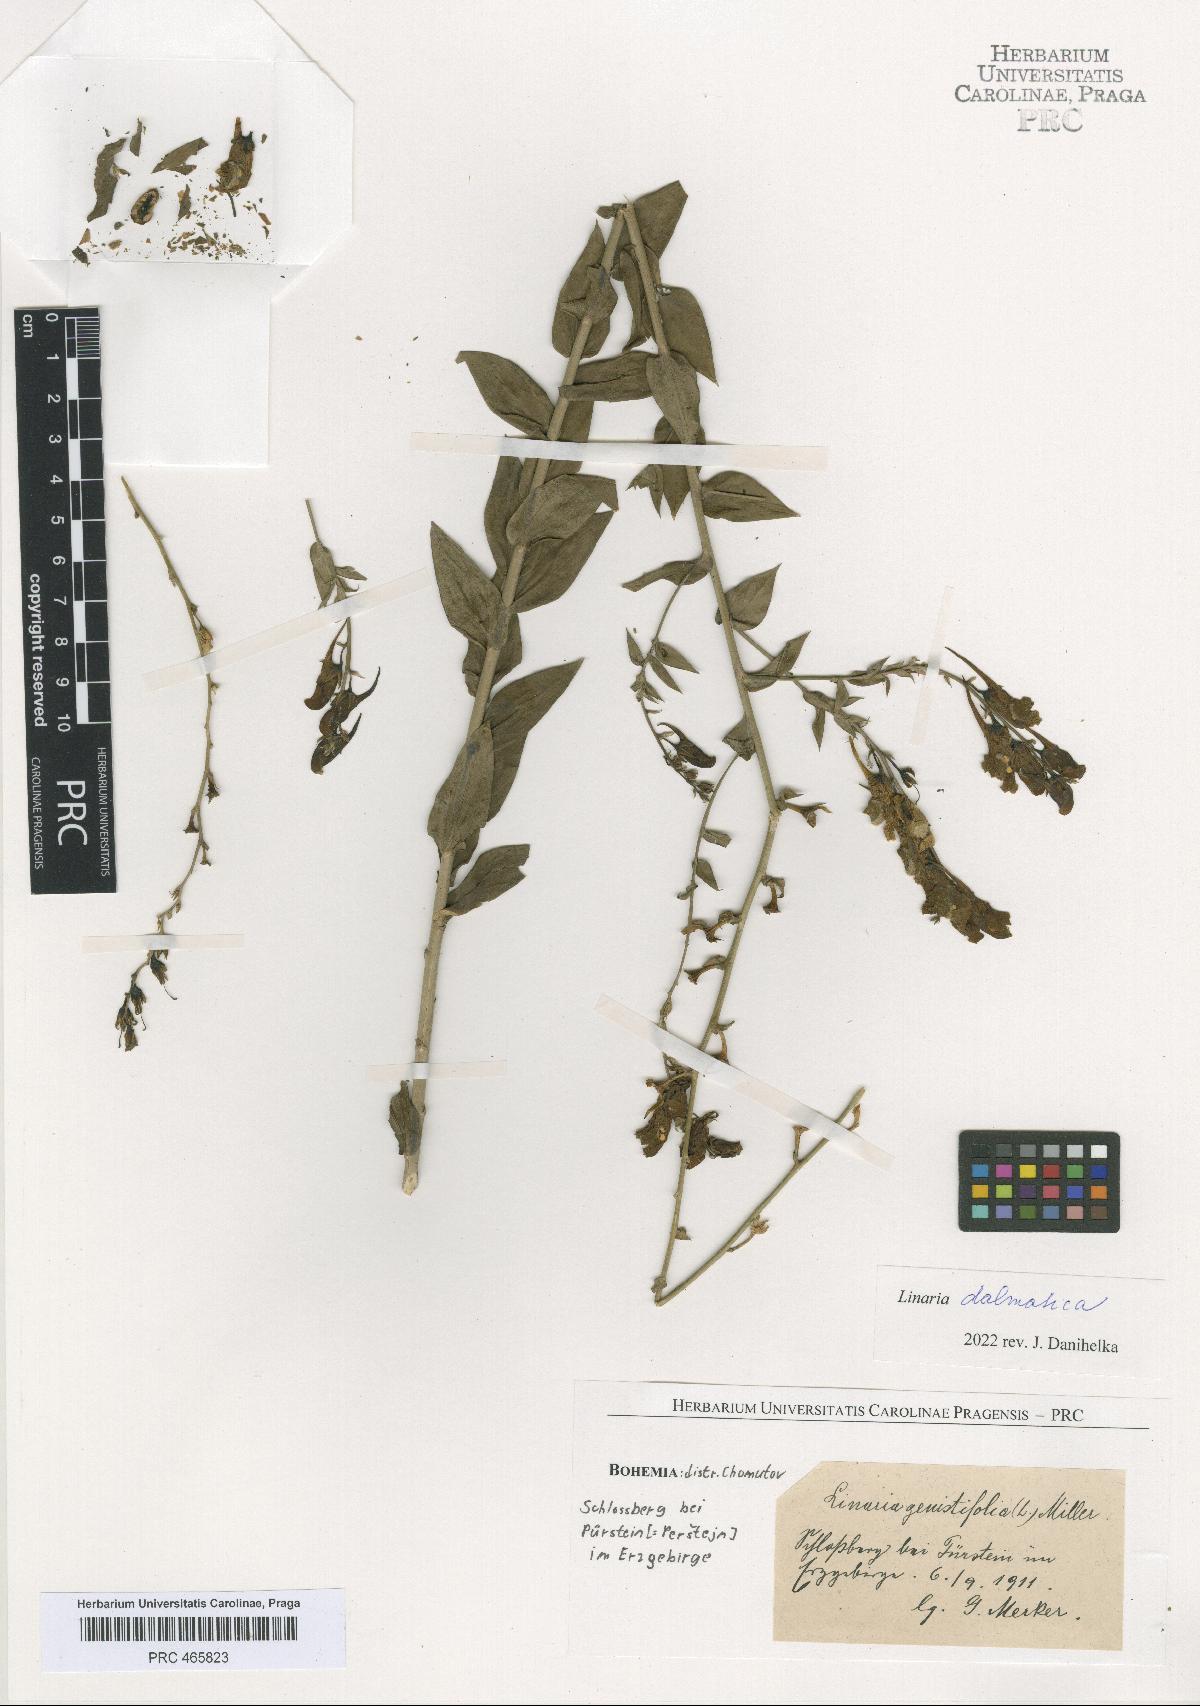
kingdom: Plantae
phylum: Tracheophyta
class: Magnoliopsida
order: Lamiales
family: Plantaginaceae
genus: Linaria
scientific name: Linaria dalmatica
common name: Dalmatian toadflax
